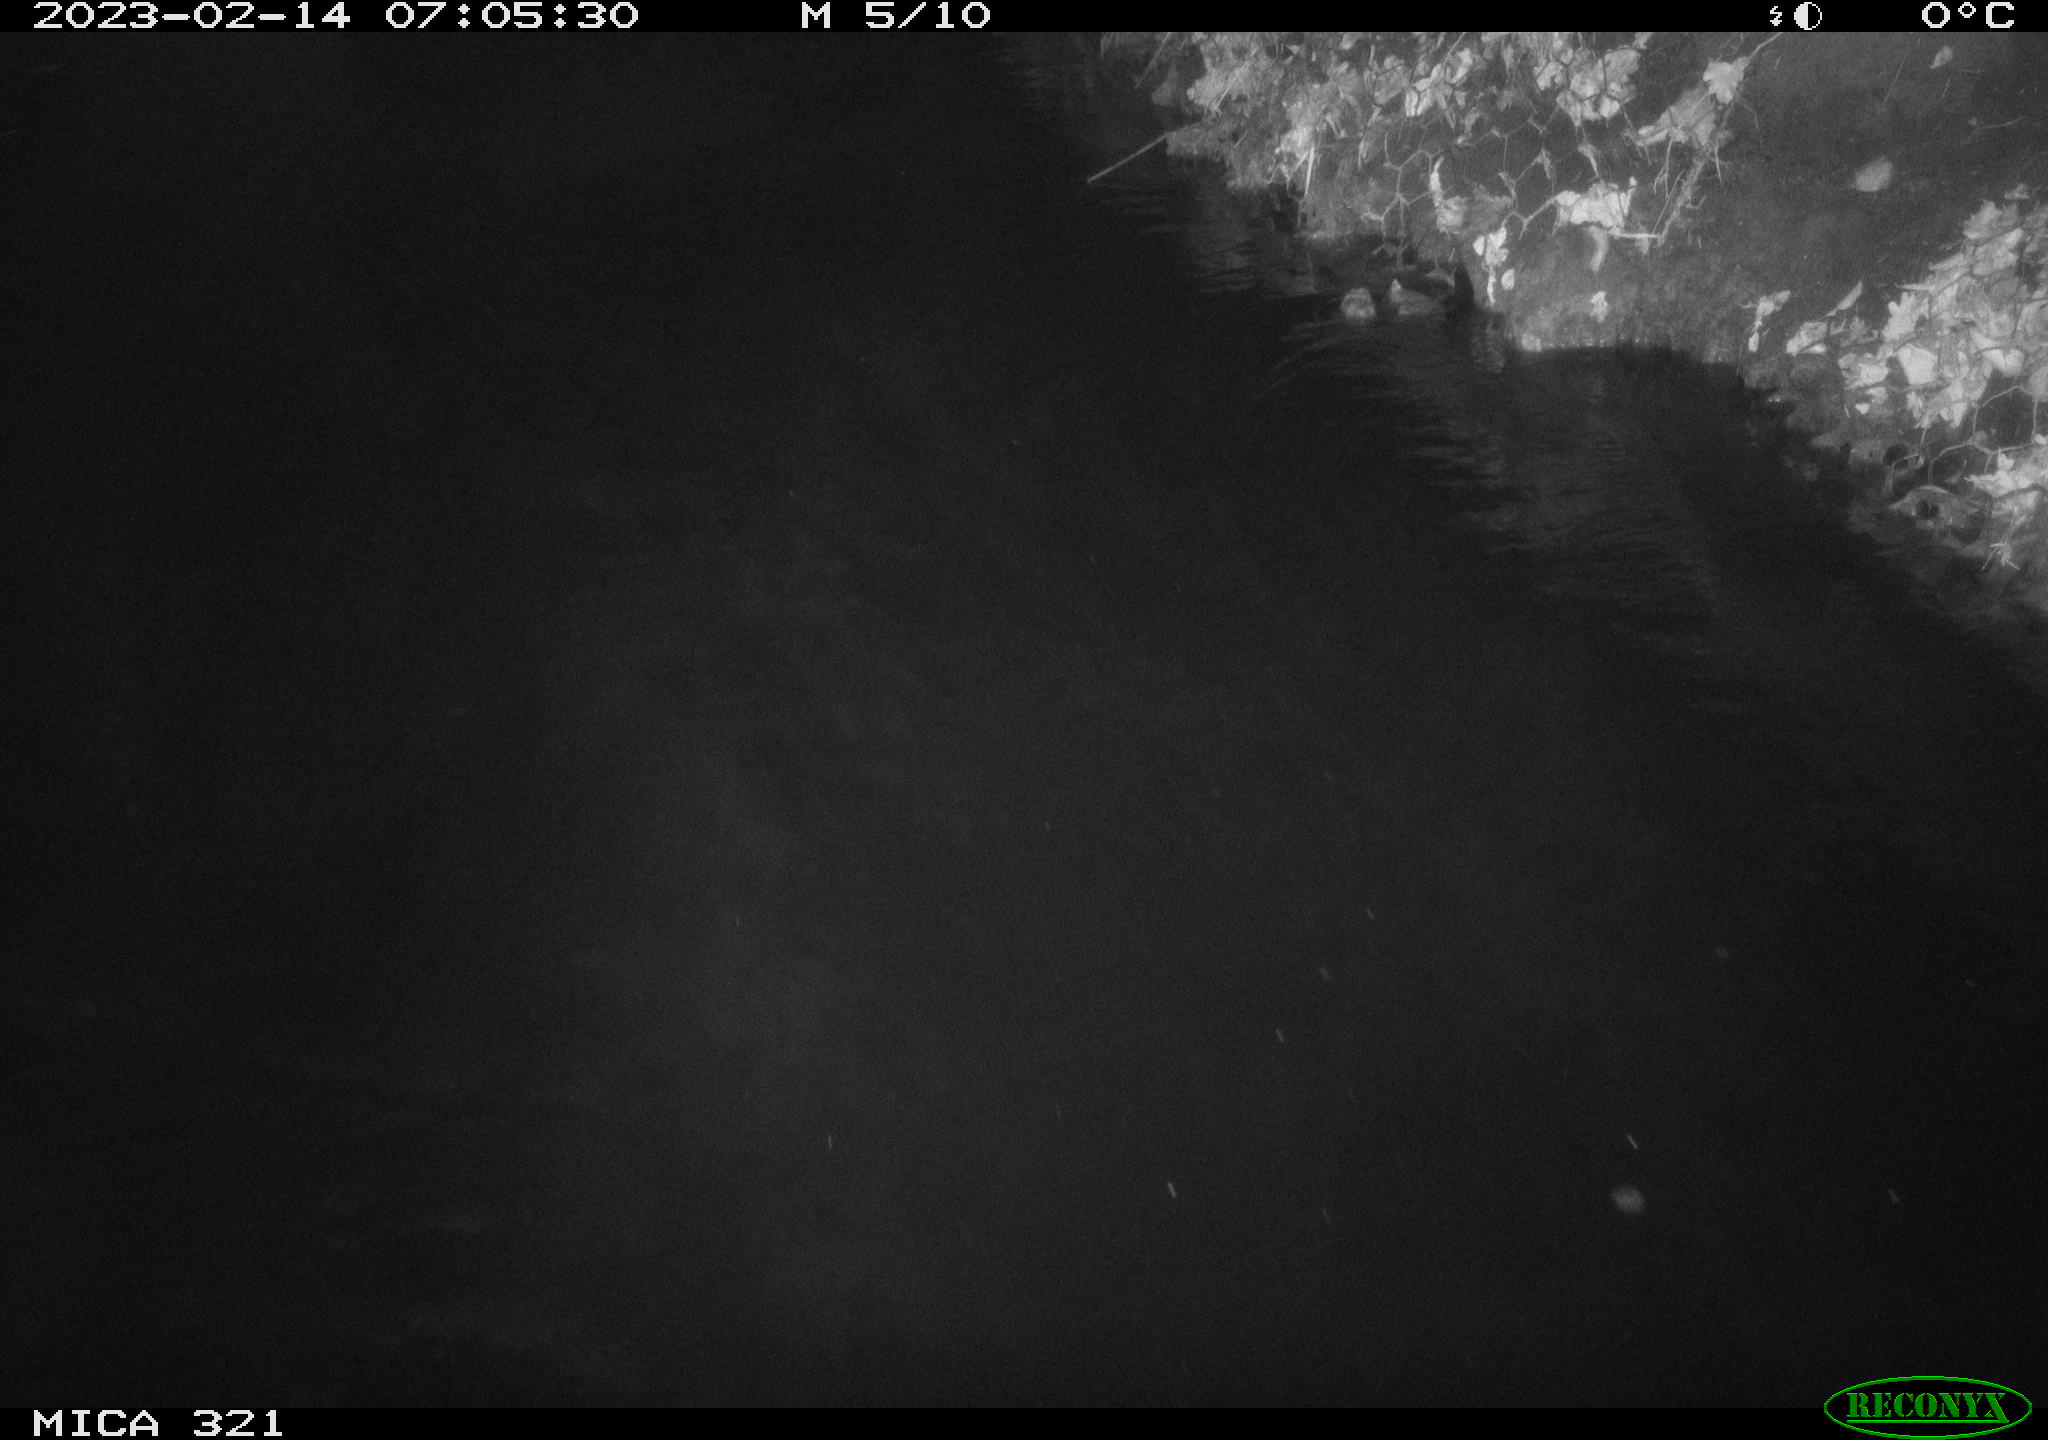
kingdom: Animalia
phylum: Chordata
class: Aves
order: Anseriformes
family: Anatidae
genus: Anas
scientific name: Anas
